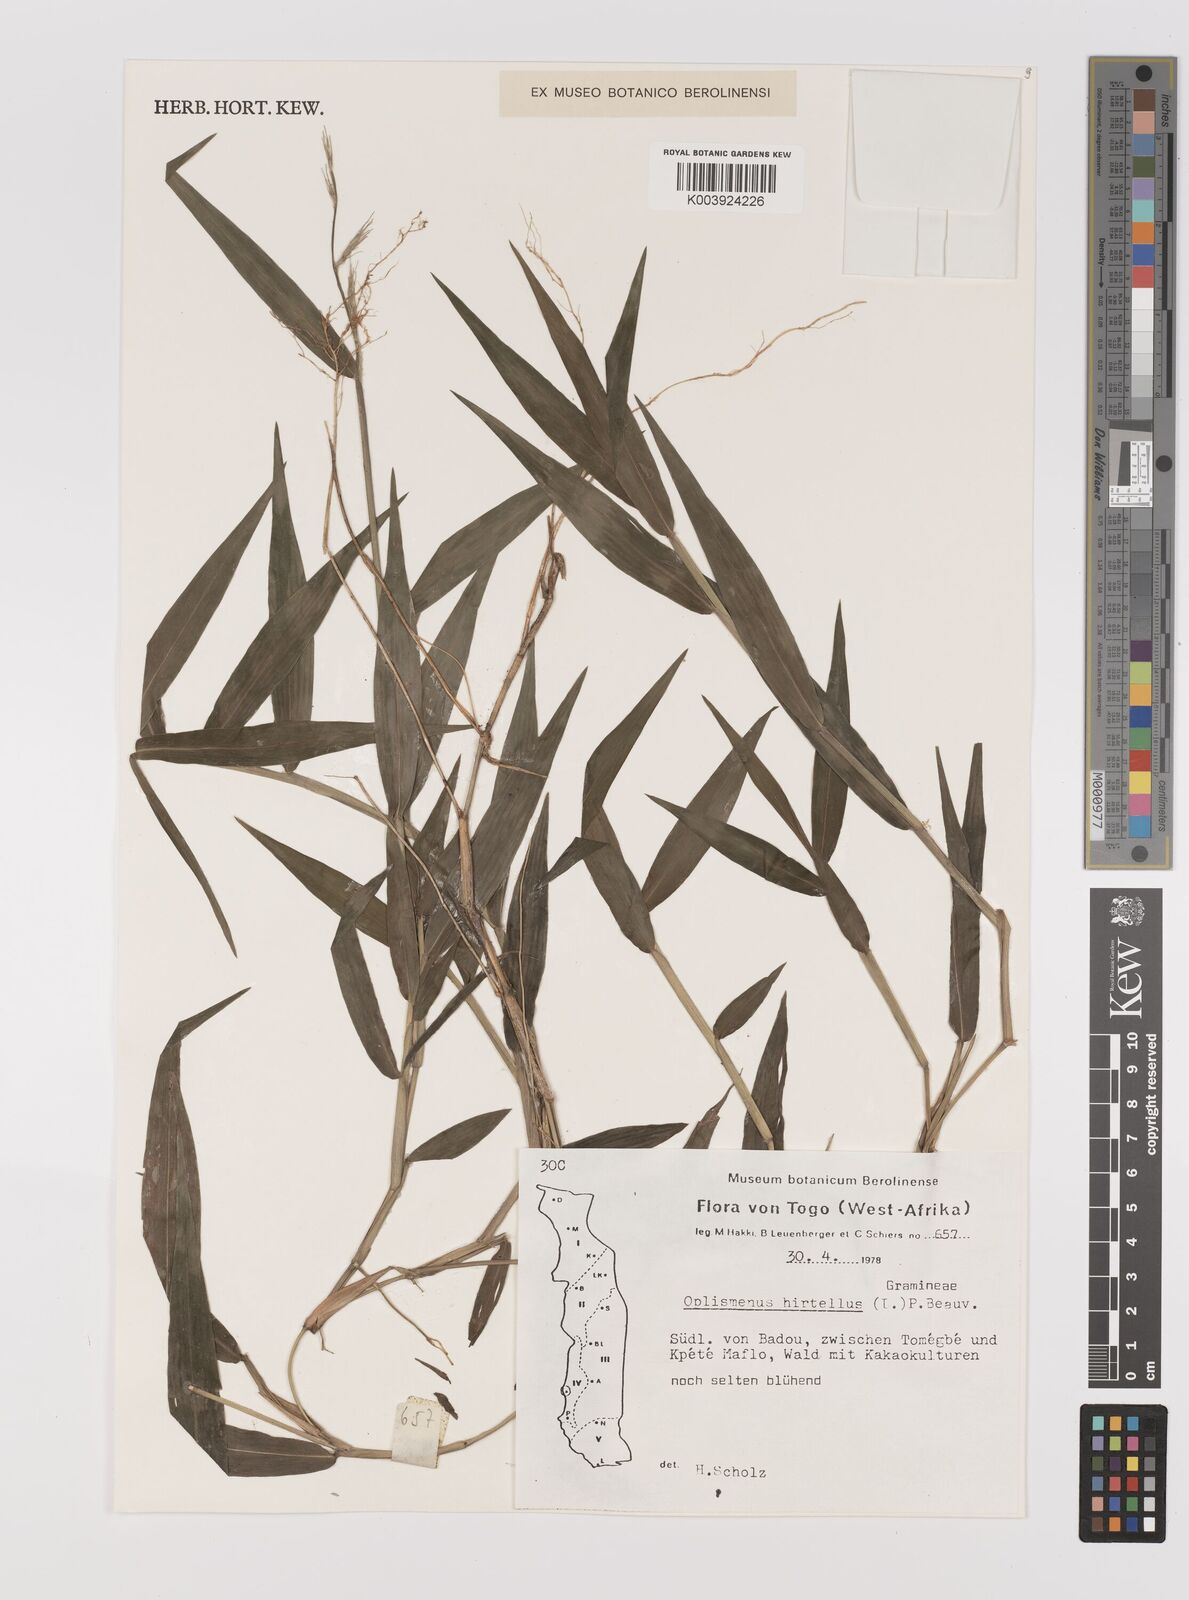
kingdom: Plantae
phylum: Tracheophyta
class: Liliopsida
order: Poales
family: Poaceae
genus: Oplismenus
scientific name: Oplismenus hirtellus
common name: Basketgrass
